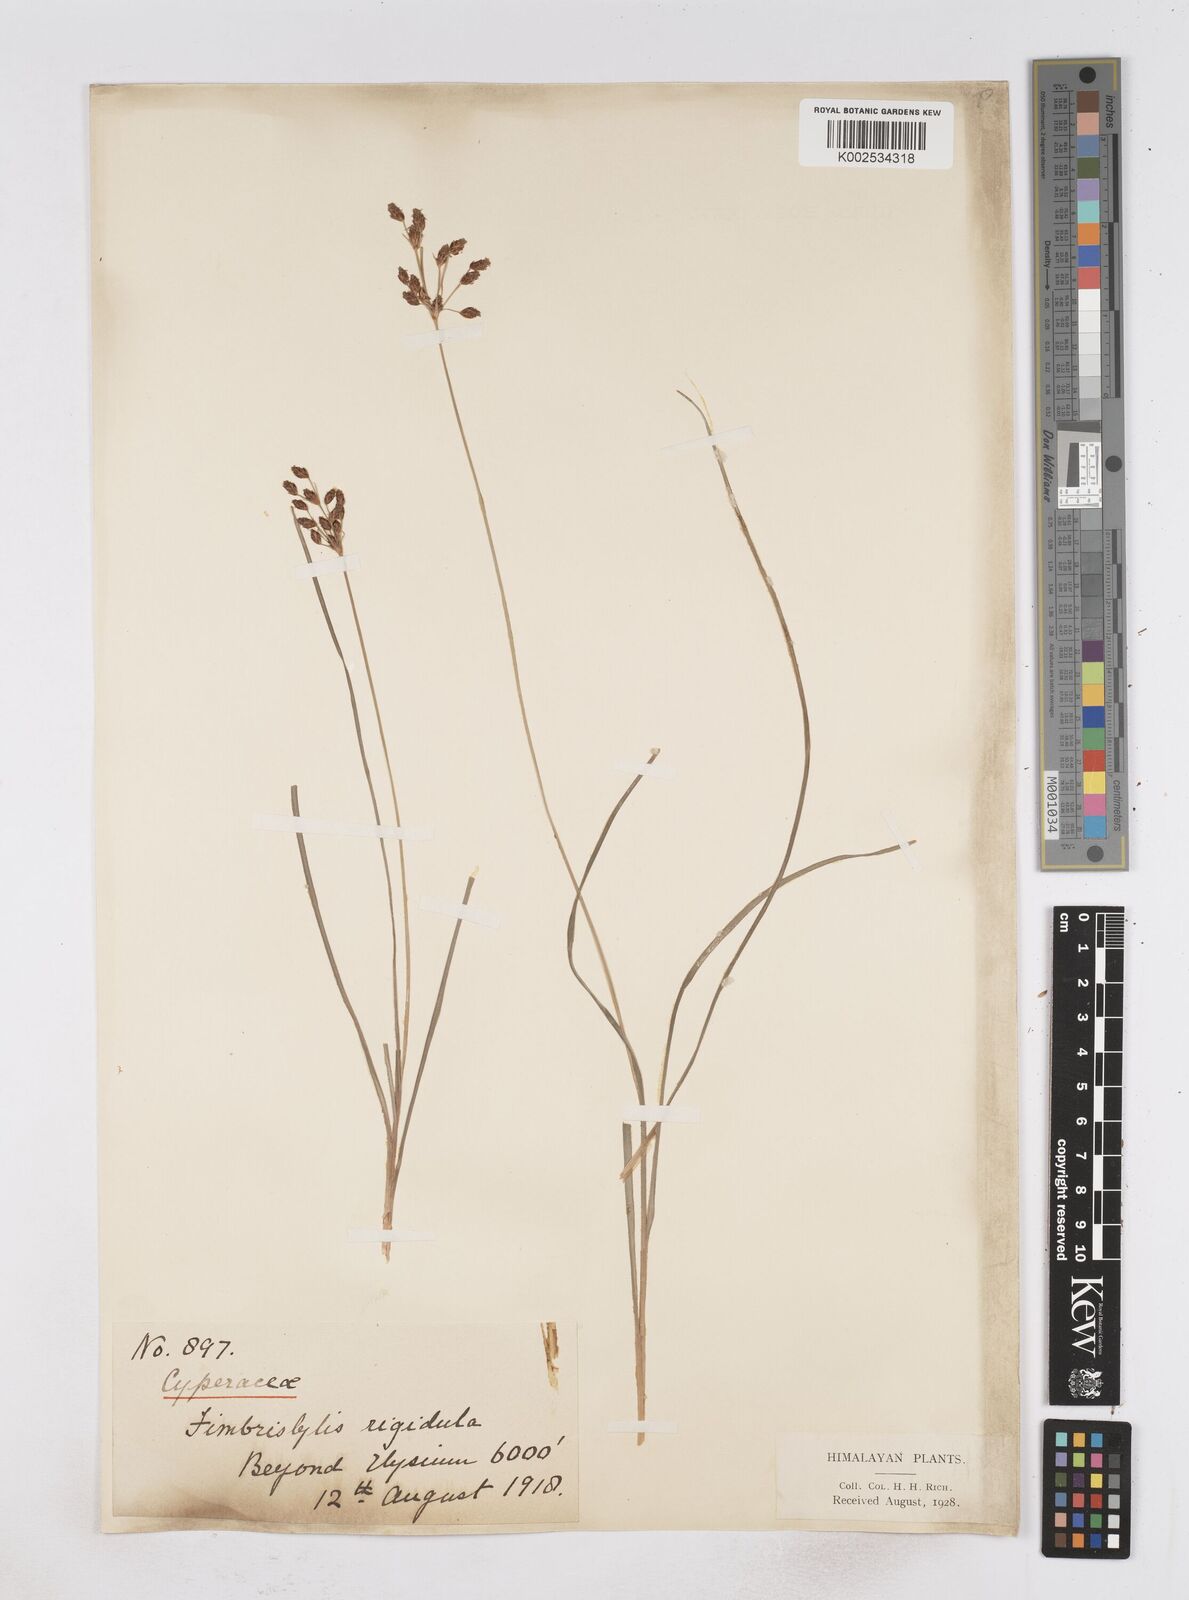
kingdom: Plantae
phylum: Tracheophyta
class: Liliopsida
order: Poales
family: Cyperaceae
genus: Fimbristylis
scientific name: Fimbristylis rigidula
